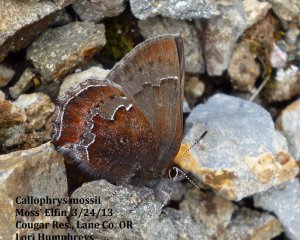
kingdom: Animalia
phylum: Arthropoda
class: Insecta
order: Lepidoptera
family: Lycaenidae
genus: Callophrys
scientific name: Callophrys mossii
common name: Moss' Elfin
